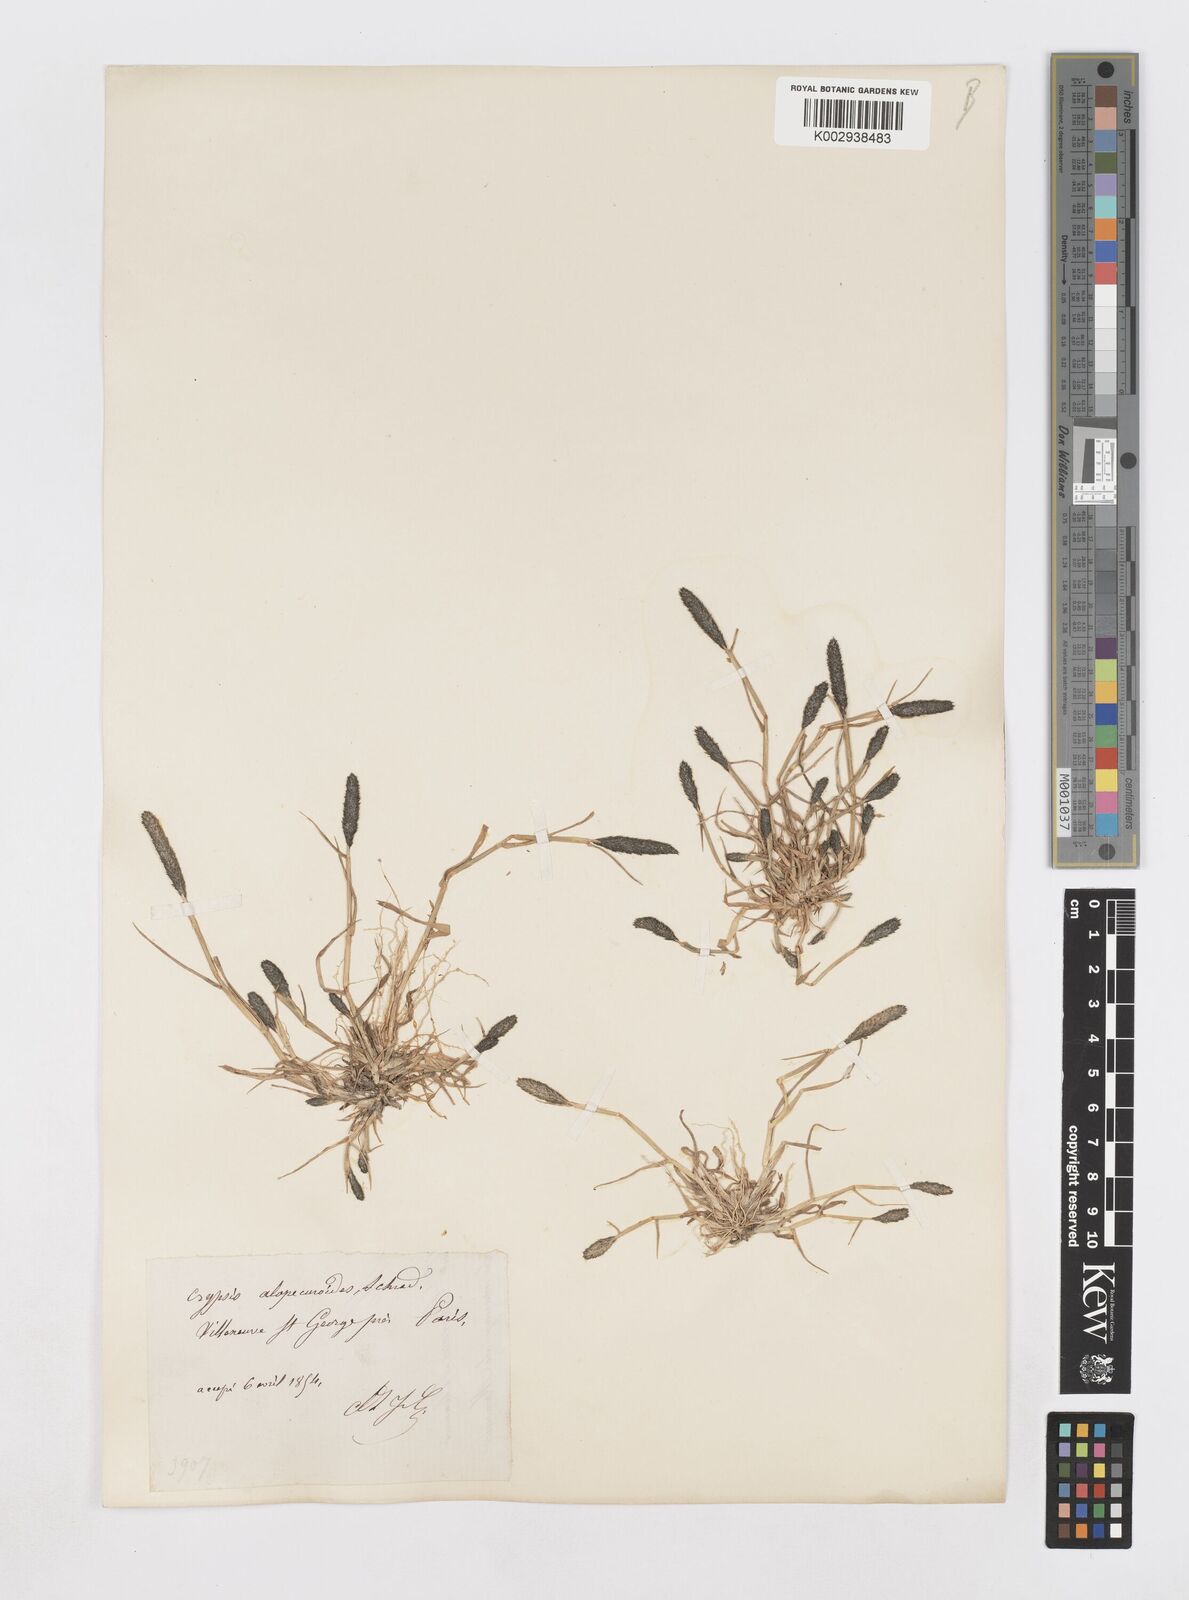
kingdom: Plantae
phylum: Tracheophyta
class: Liliopsida
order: Poales
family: Poaceae
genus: Sporobolus
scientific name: Sporobolus alopecuroides
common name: Foxtail pricklegrass
